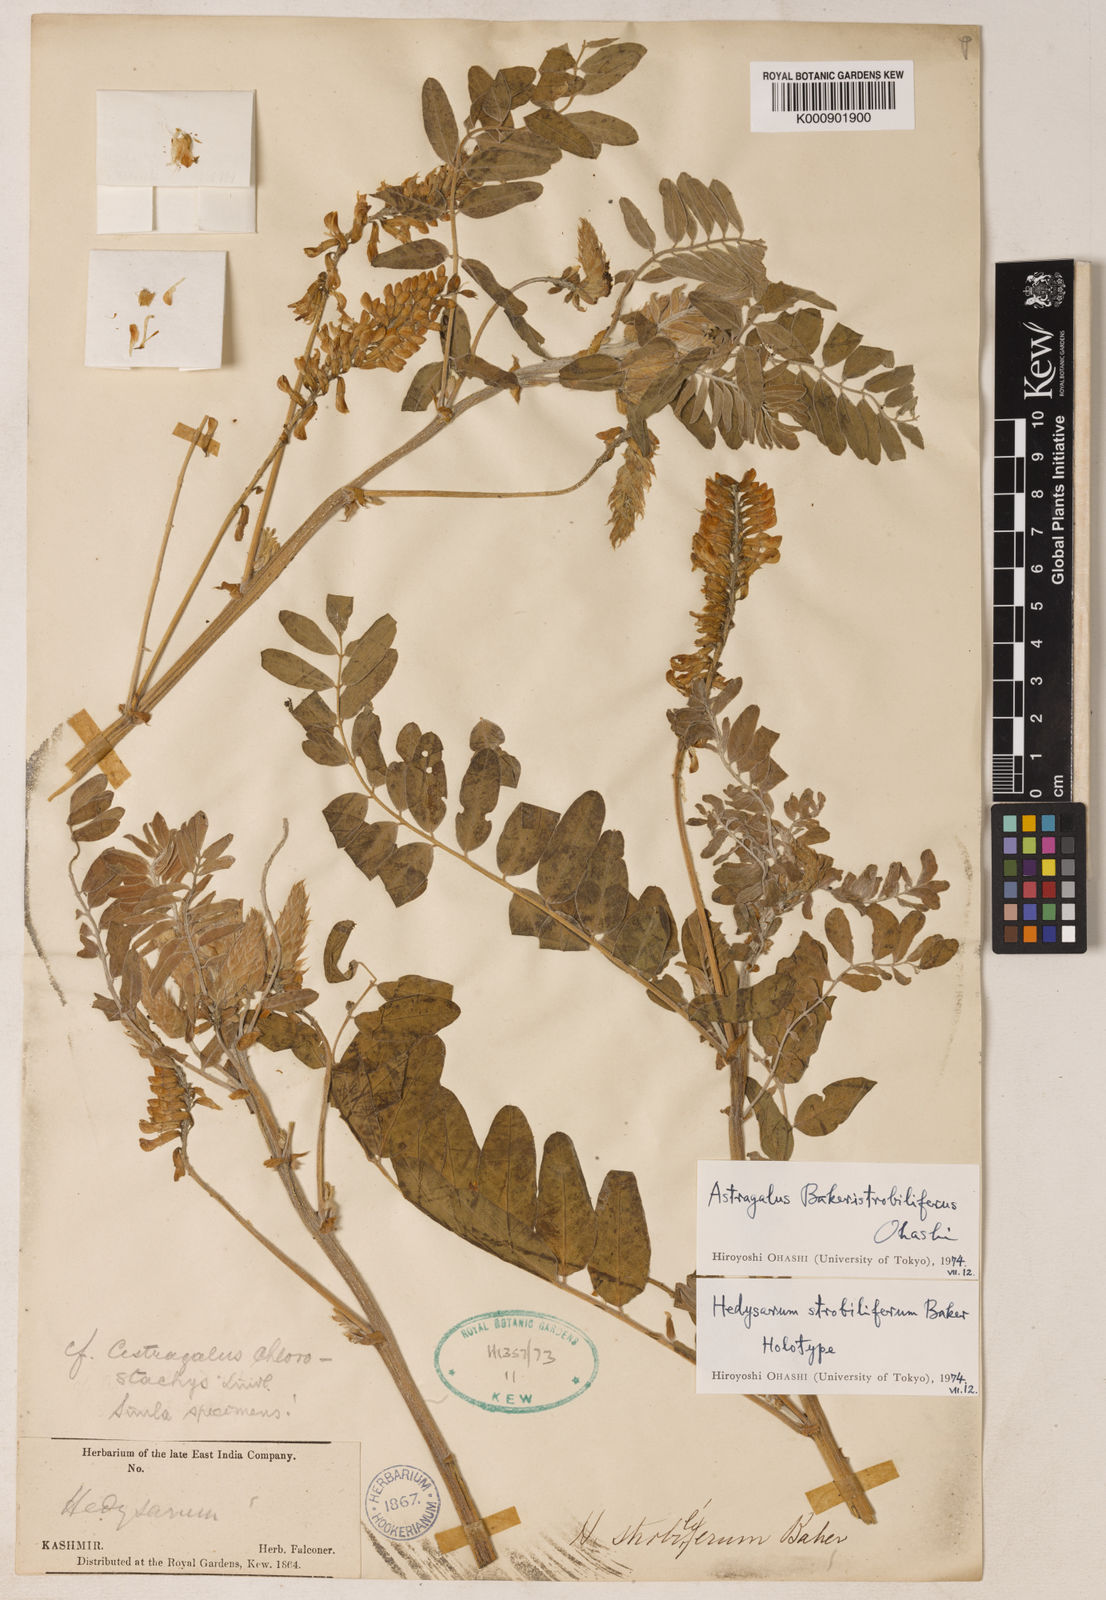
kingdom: Plantae
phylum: Tracheophyta
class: Magnoliopsida
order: Fabales
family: Fabaceae
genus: Astragalus
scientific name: Astragalus chlorostachys
